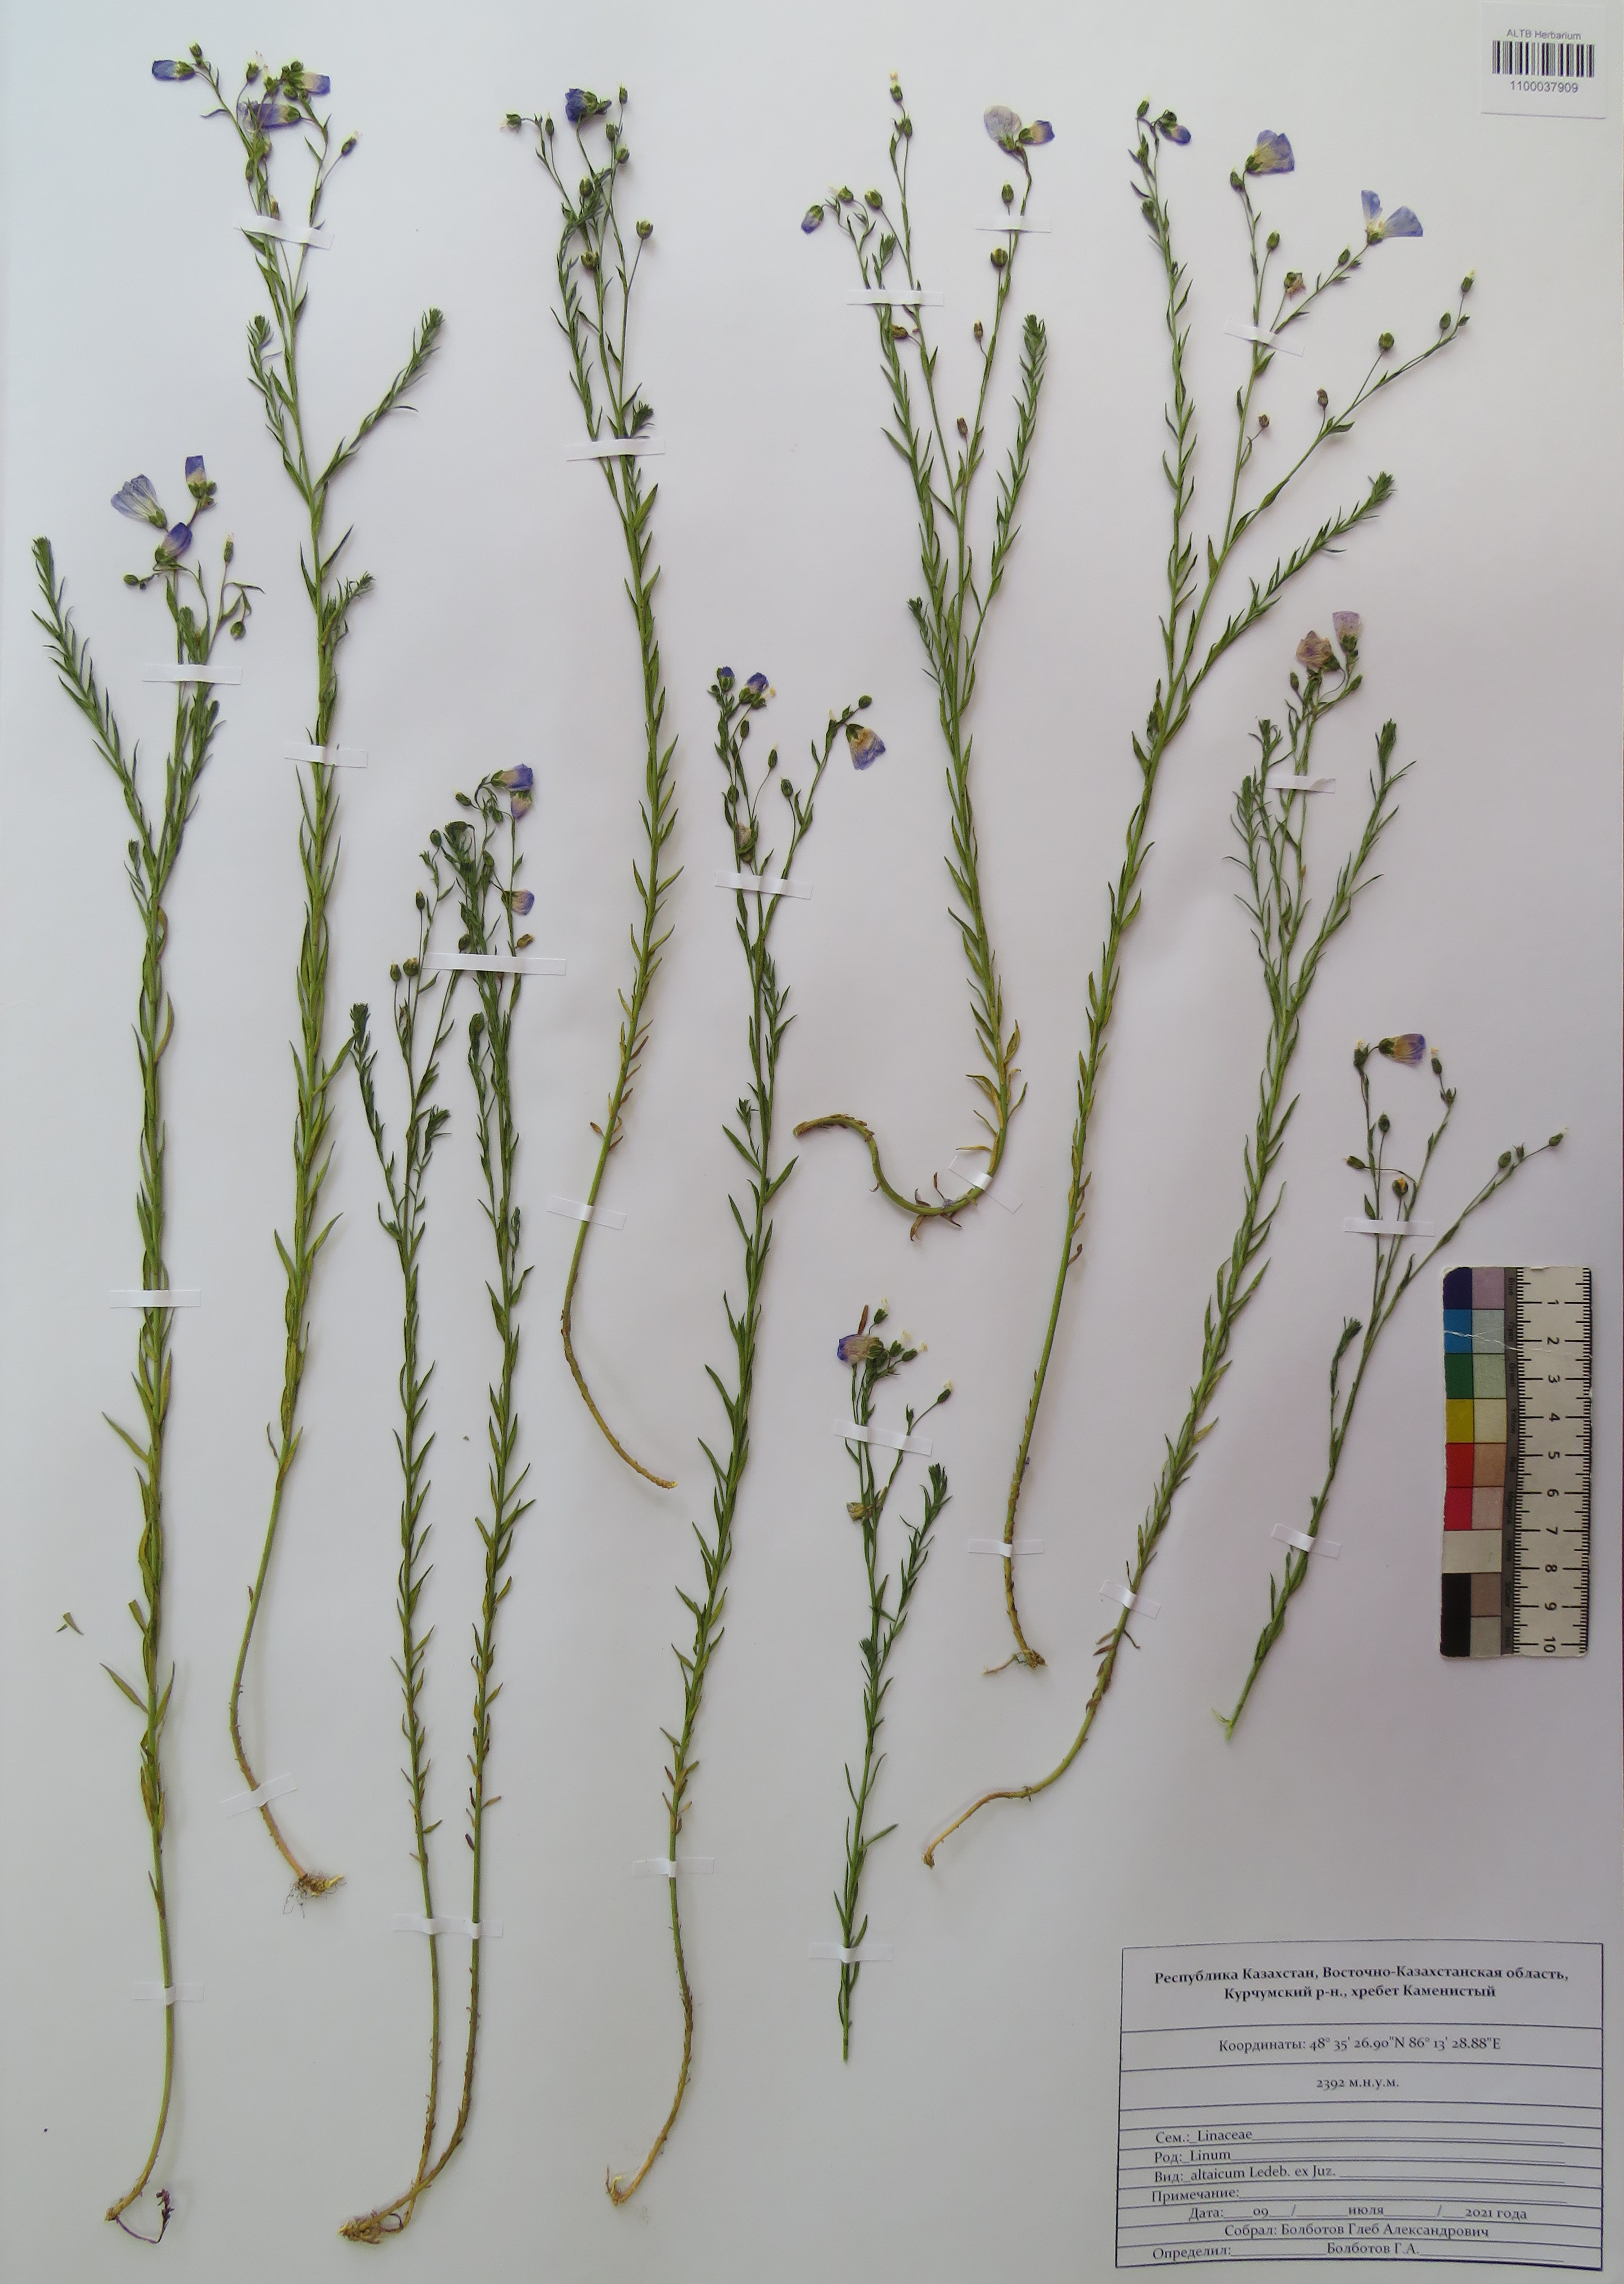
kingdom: Plantae
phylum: Tracheophyta
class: Magnoliopsida
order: Malpighiales
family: Linaceae
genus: Linum
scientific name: Linum altaicum
